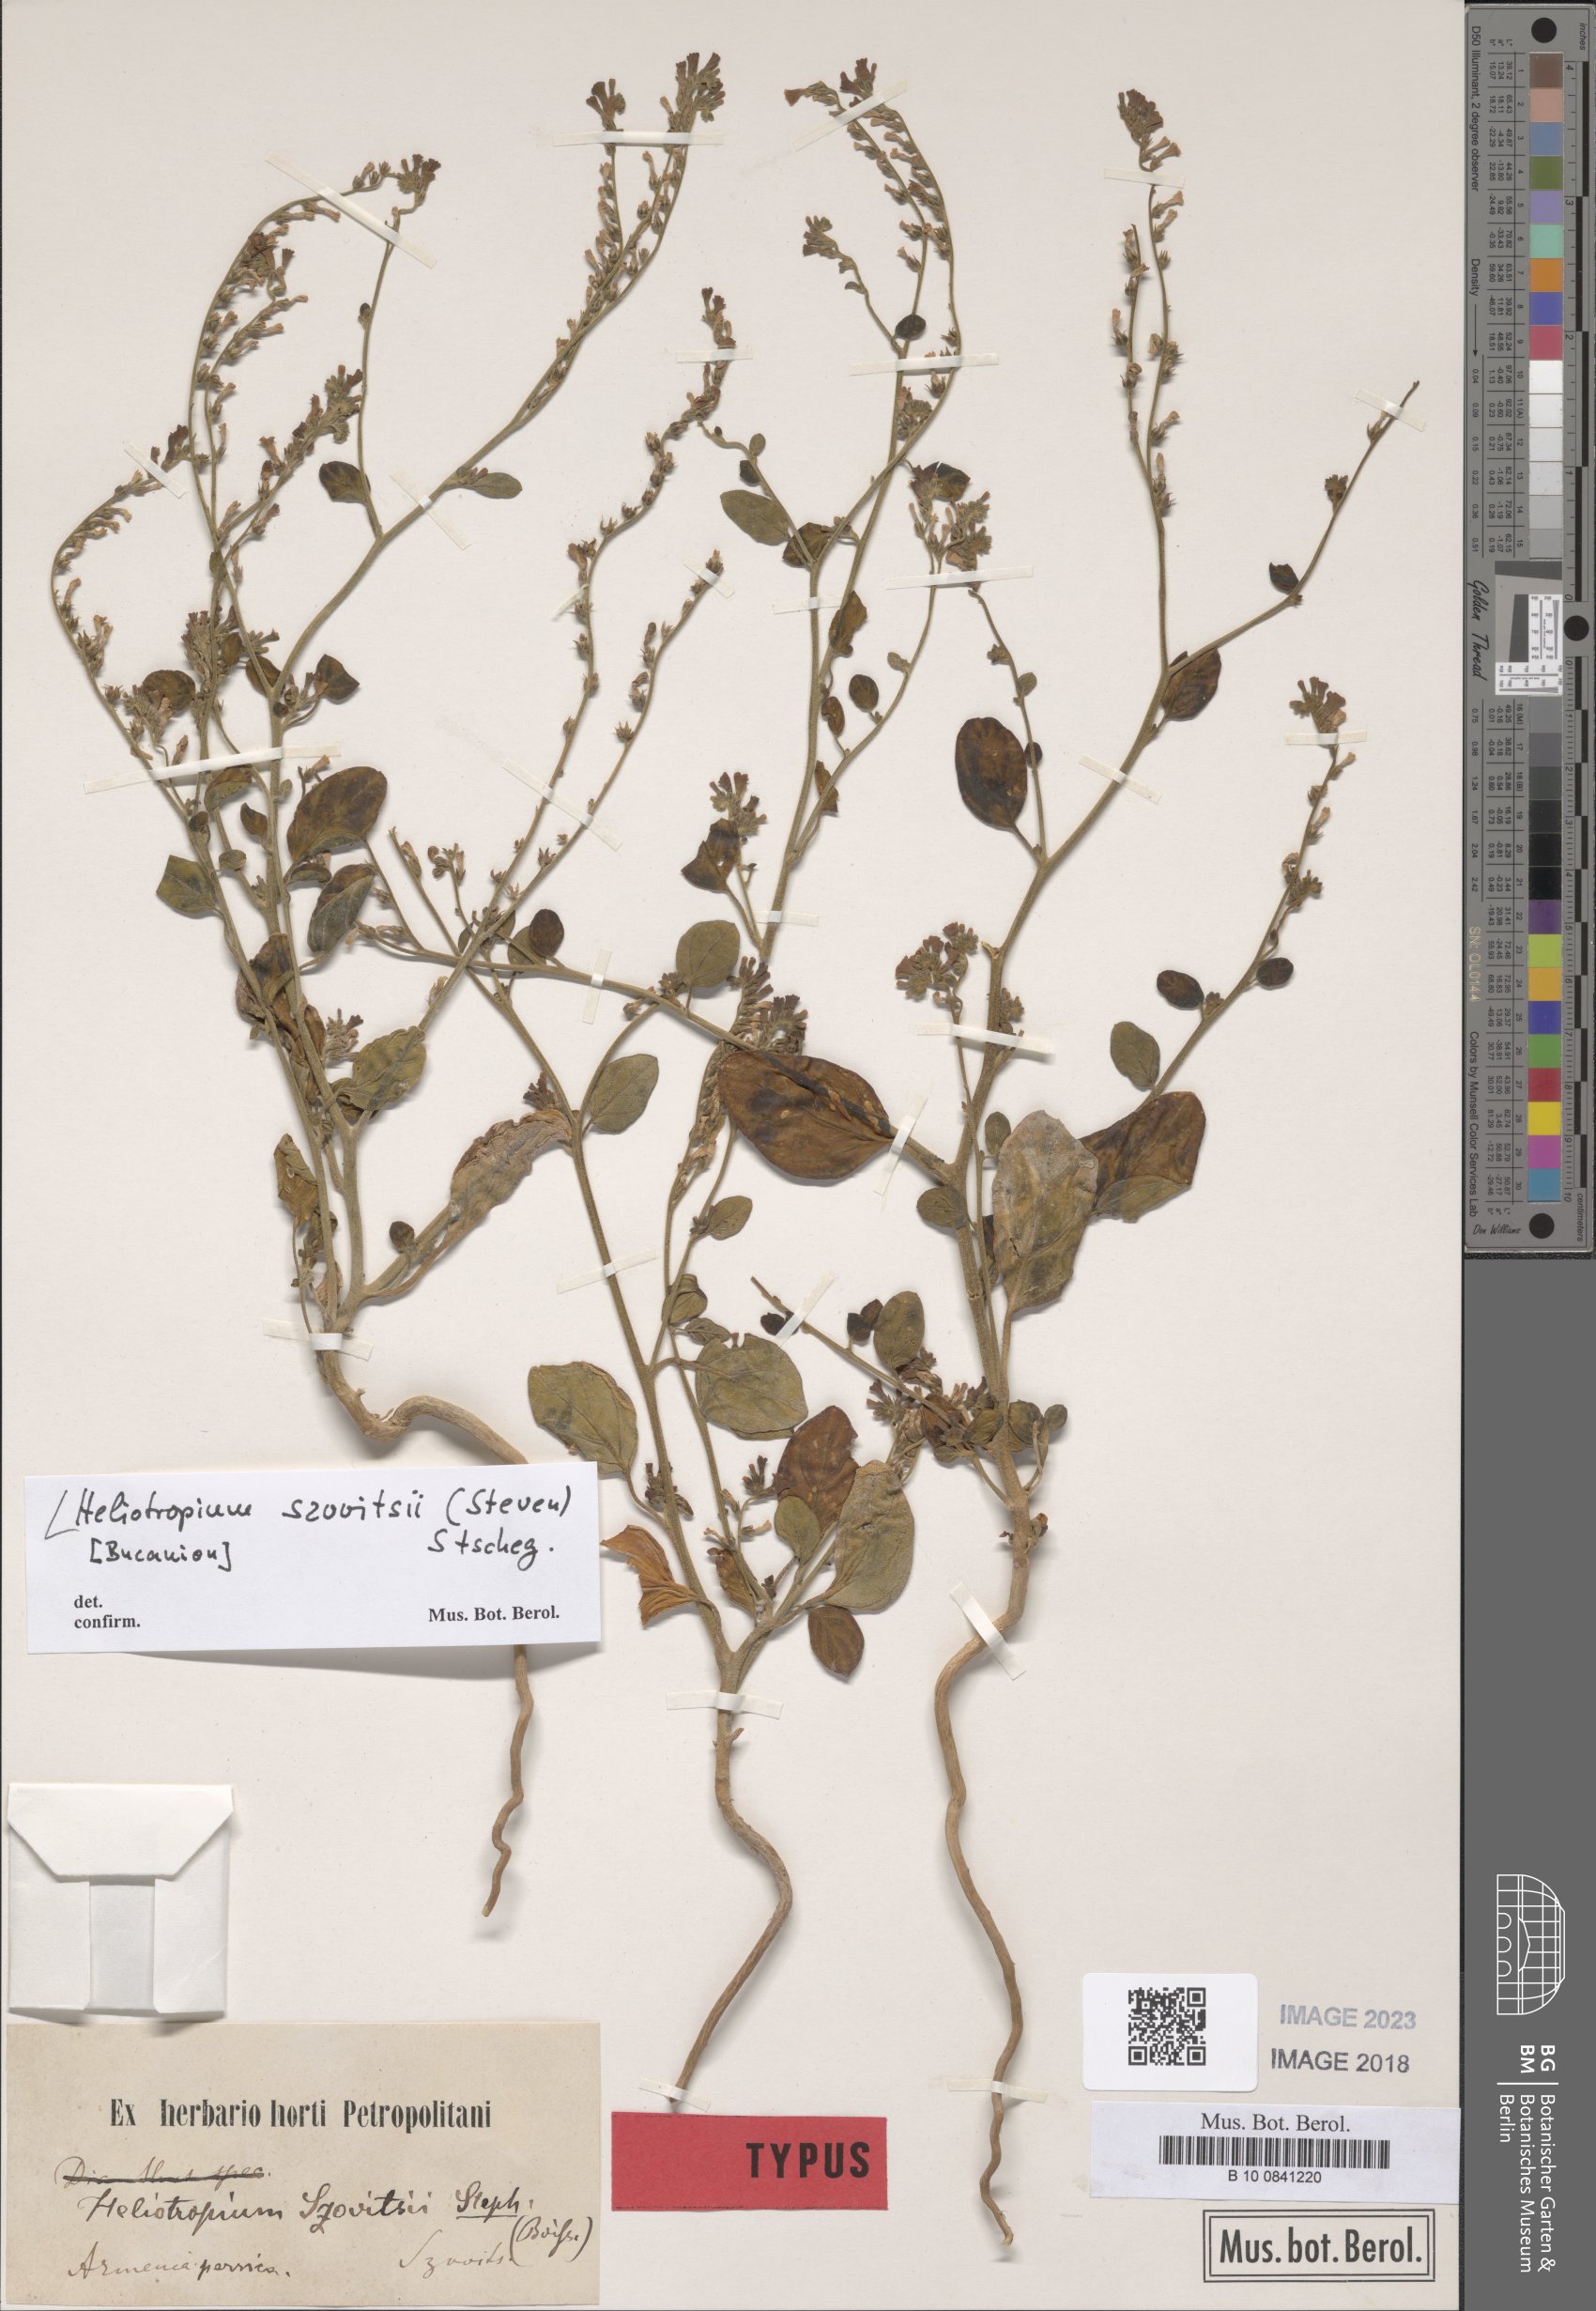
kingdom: Plantae
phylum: Tracheophyta
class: Magnoliopsida
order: Boraginales
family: Heliotropiaceae
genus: Heliotropium
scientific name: Heliotropium szovitsii
